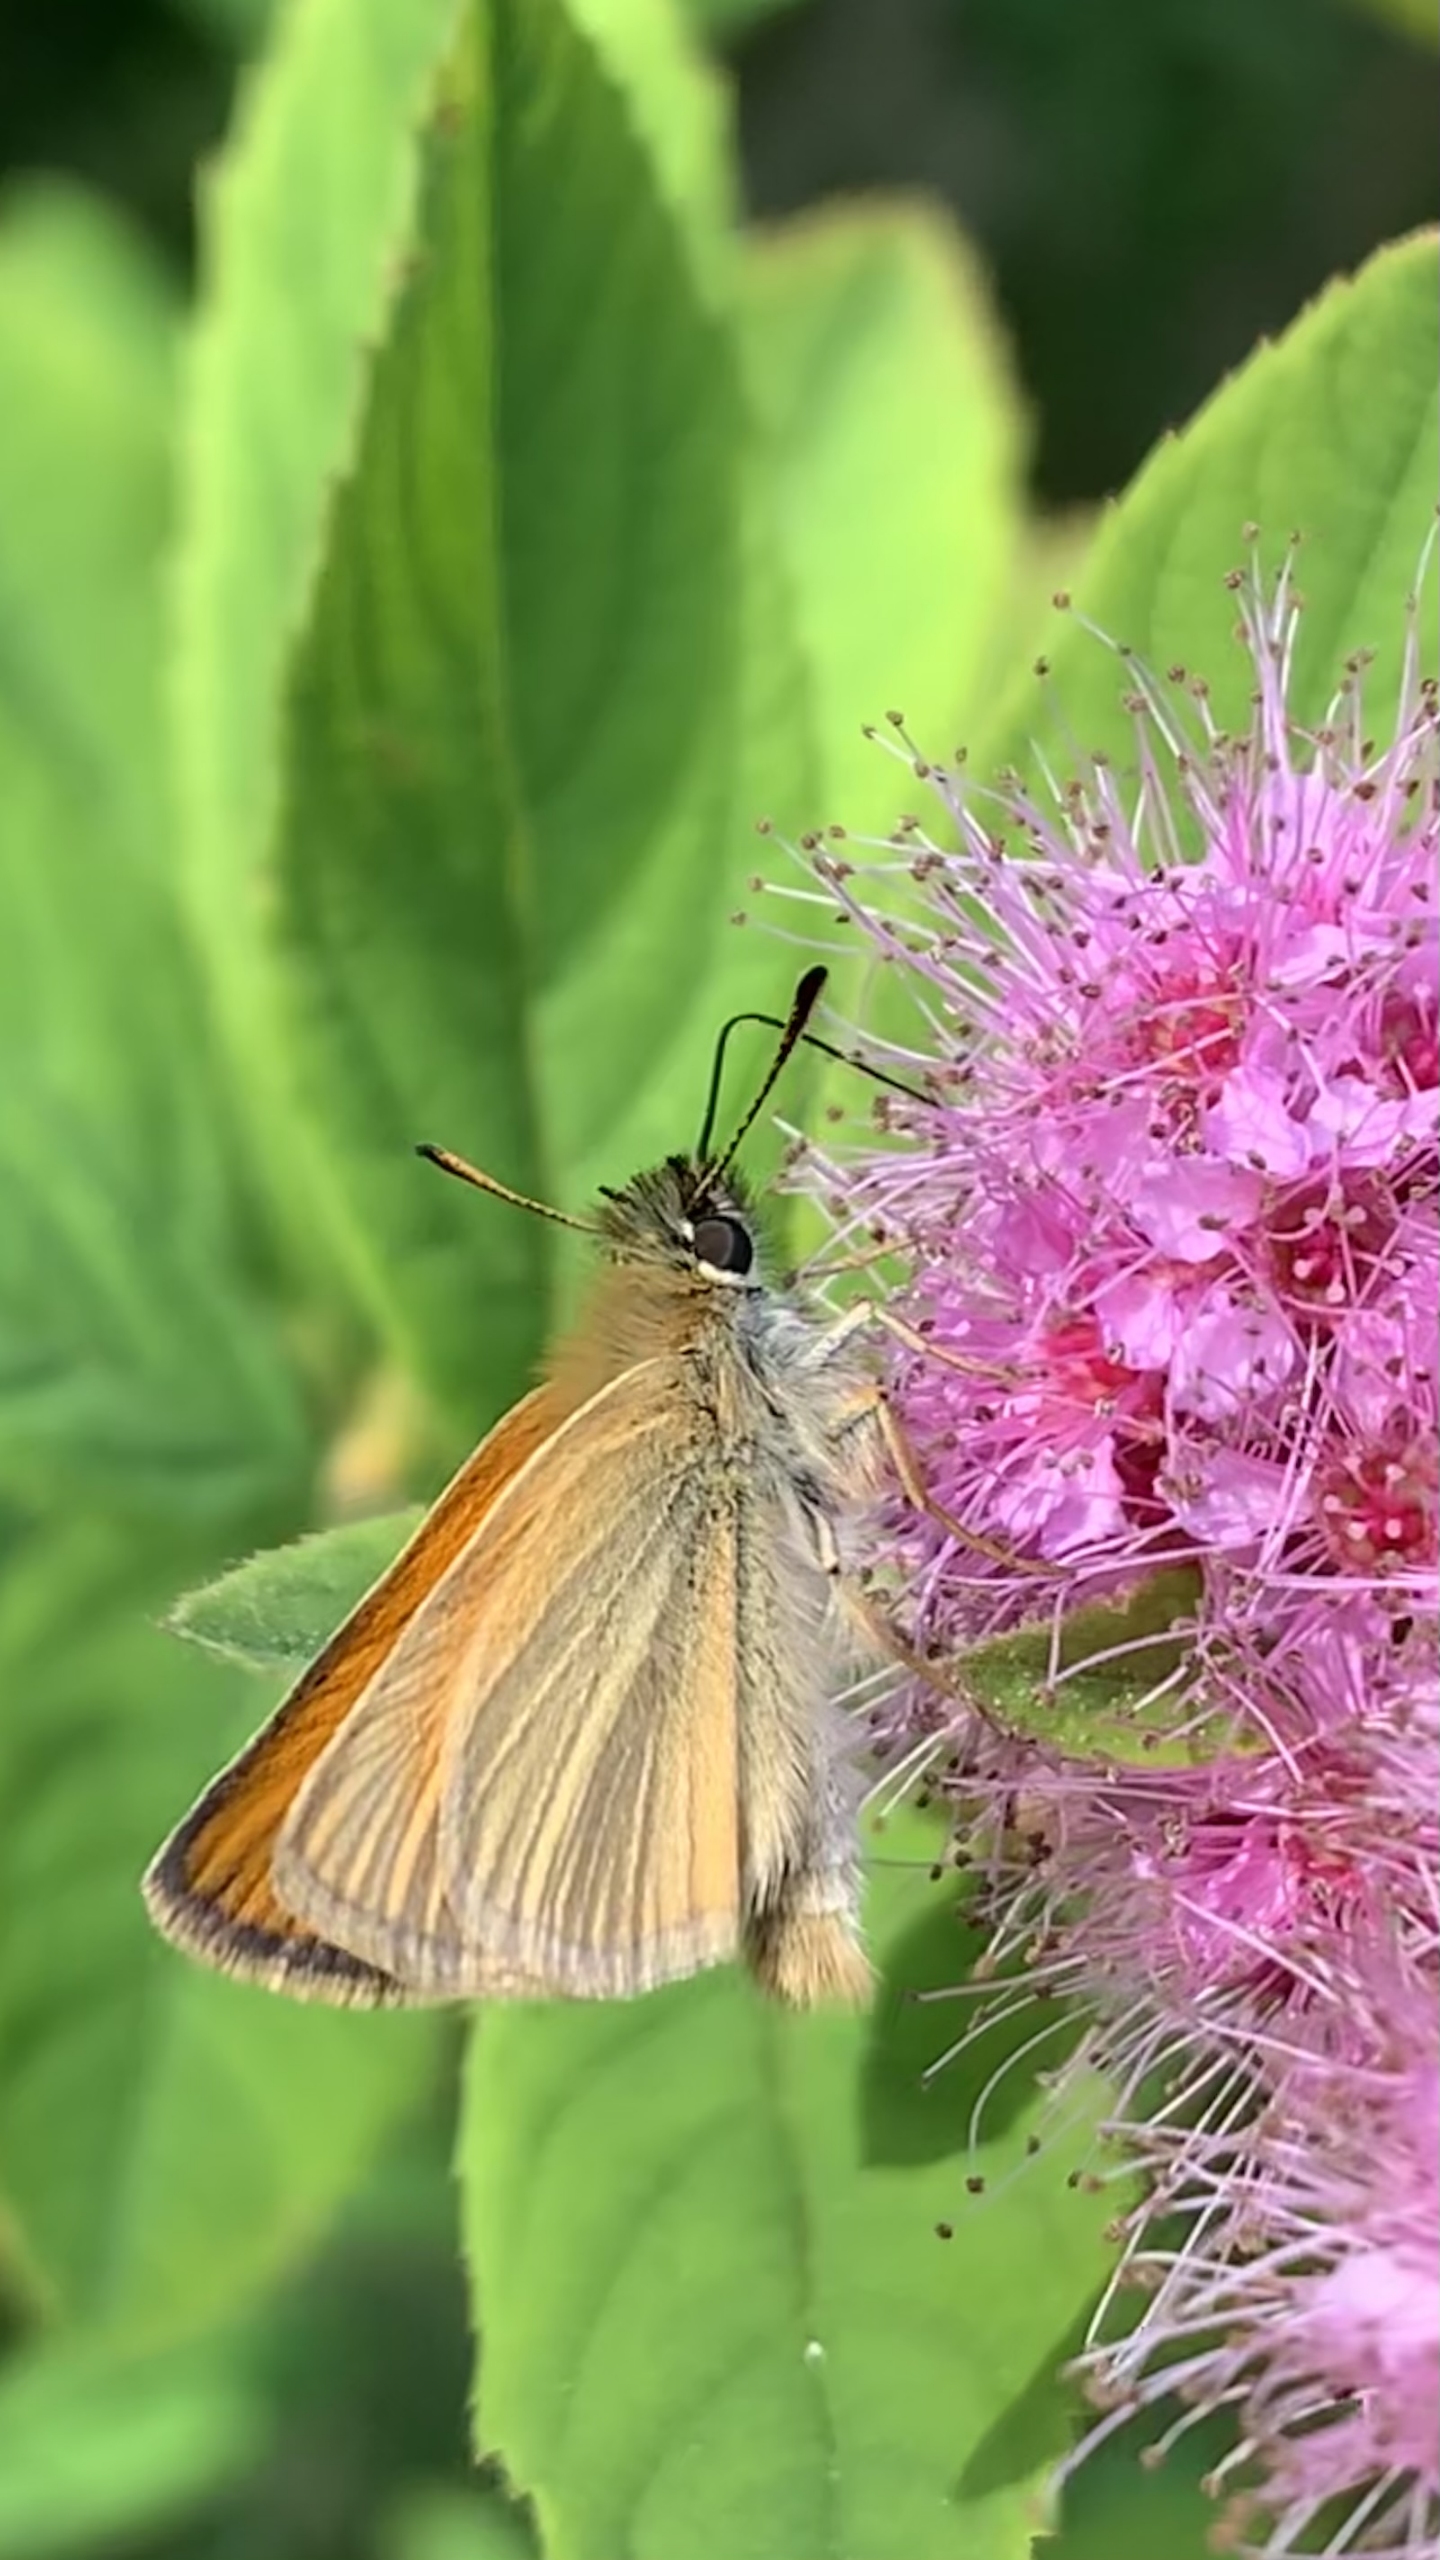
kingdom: Animalia
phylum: Arthropoda
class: Insecta
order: Lepidoptera
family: Hesperiidae
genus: Thymelicus
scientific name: Thymelicus lineola
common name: Stregbredpande
